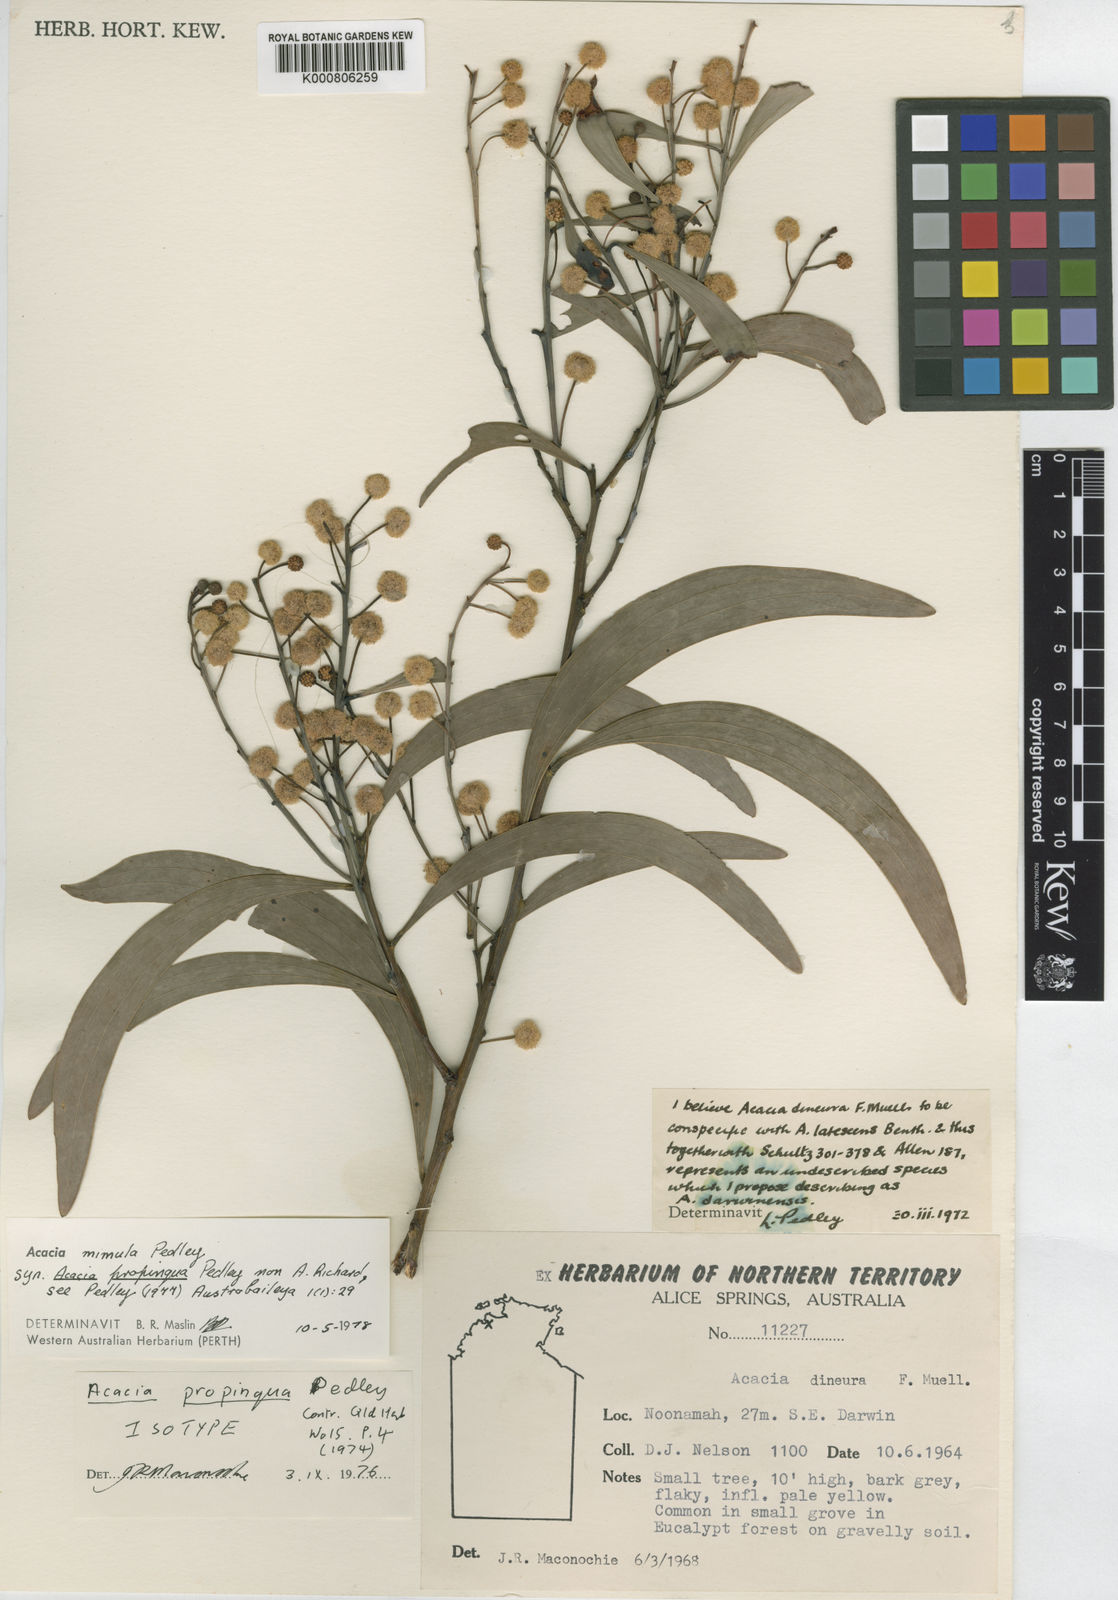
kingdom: Plantae
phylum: Tracheophyta
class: Magnoliopsida
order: Fabales
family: Fabaceae
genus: Acacia
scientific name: Acacia mimula
